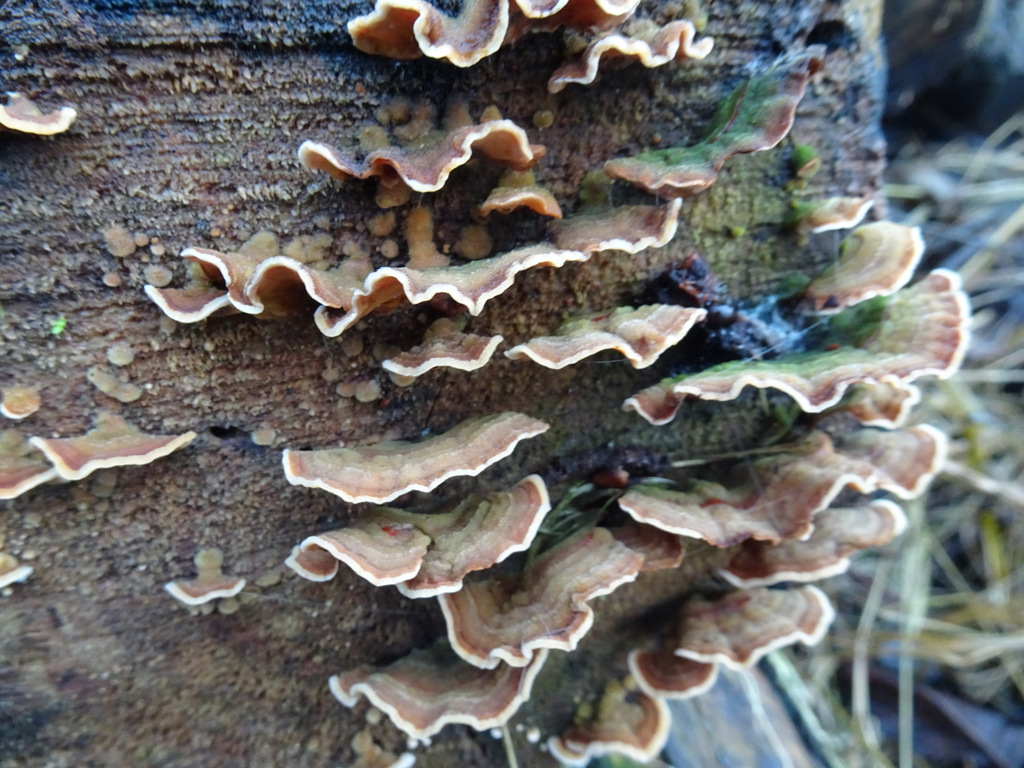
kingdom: Fungi
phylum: Basidiomycota
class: Agaricomycetes
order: Russulales
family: Stereaceae
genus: Stereum
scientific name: Stereum subtomentosum
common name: smuk lædersvamp
